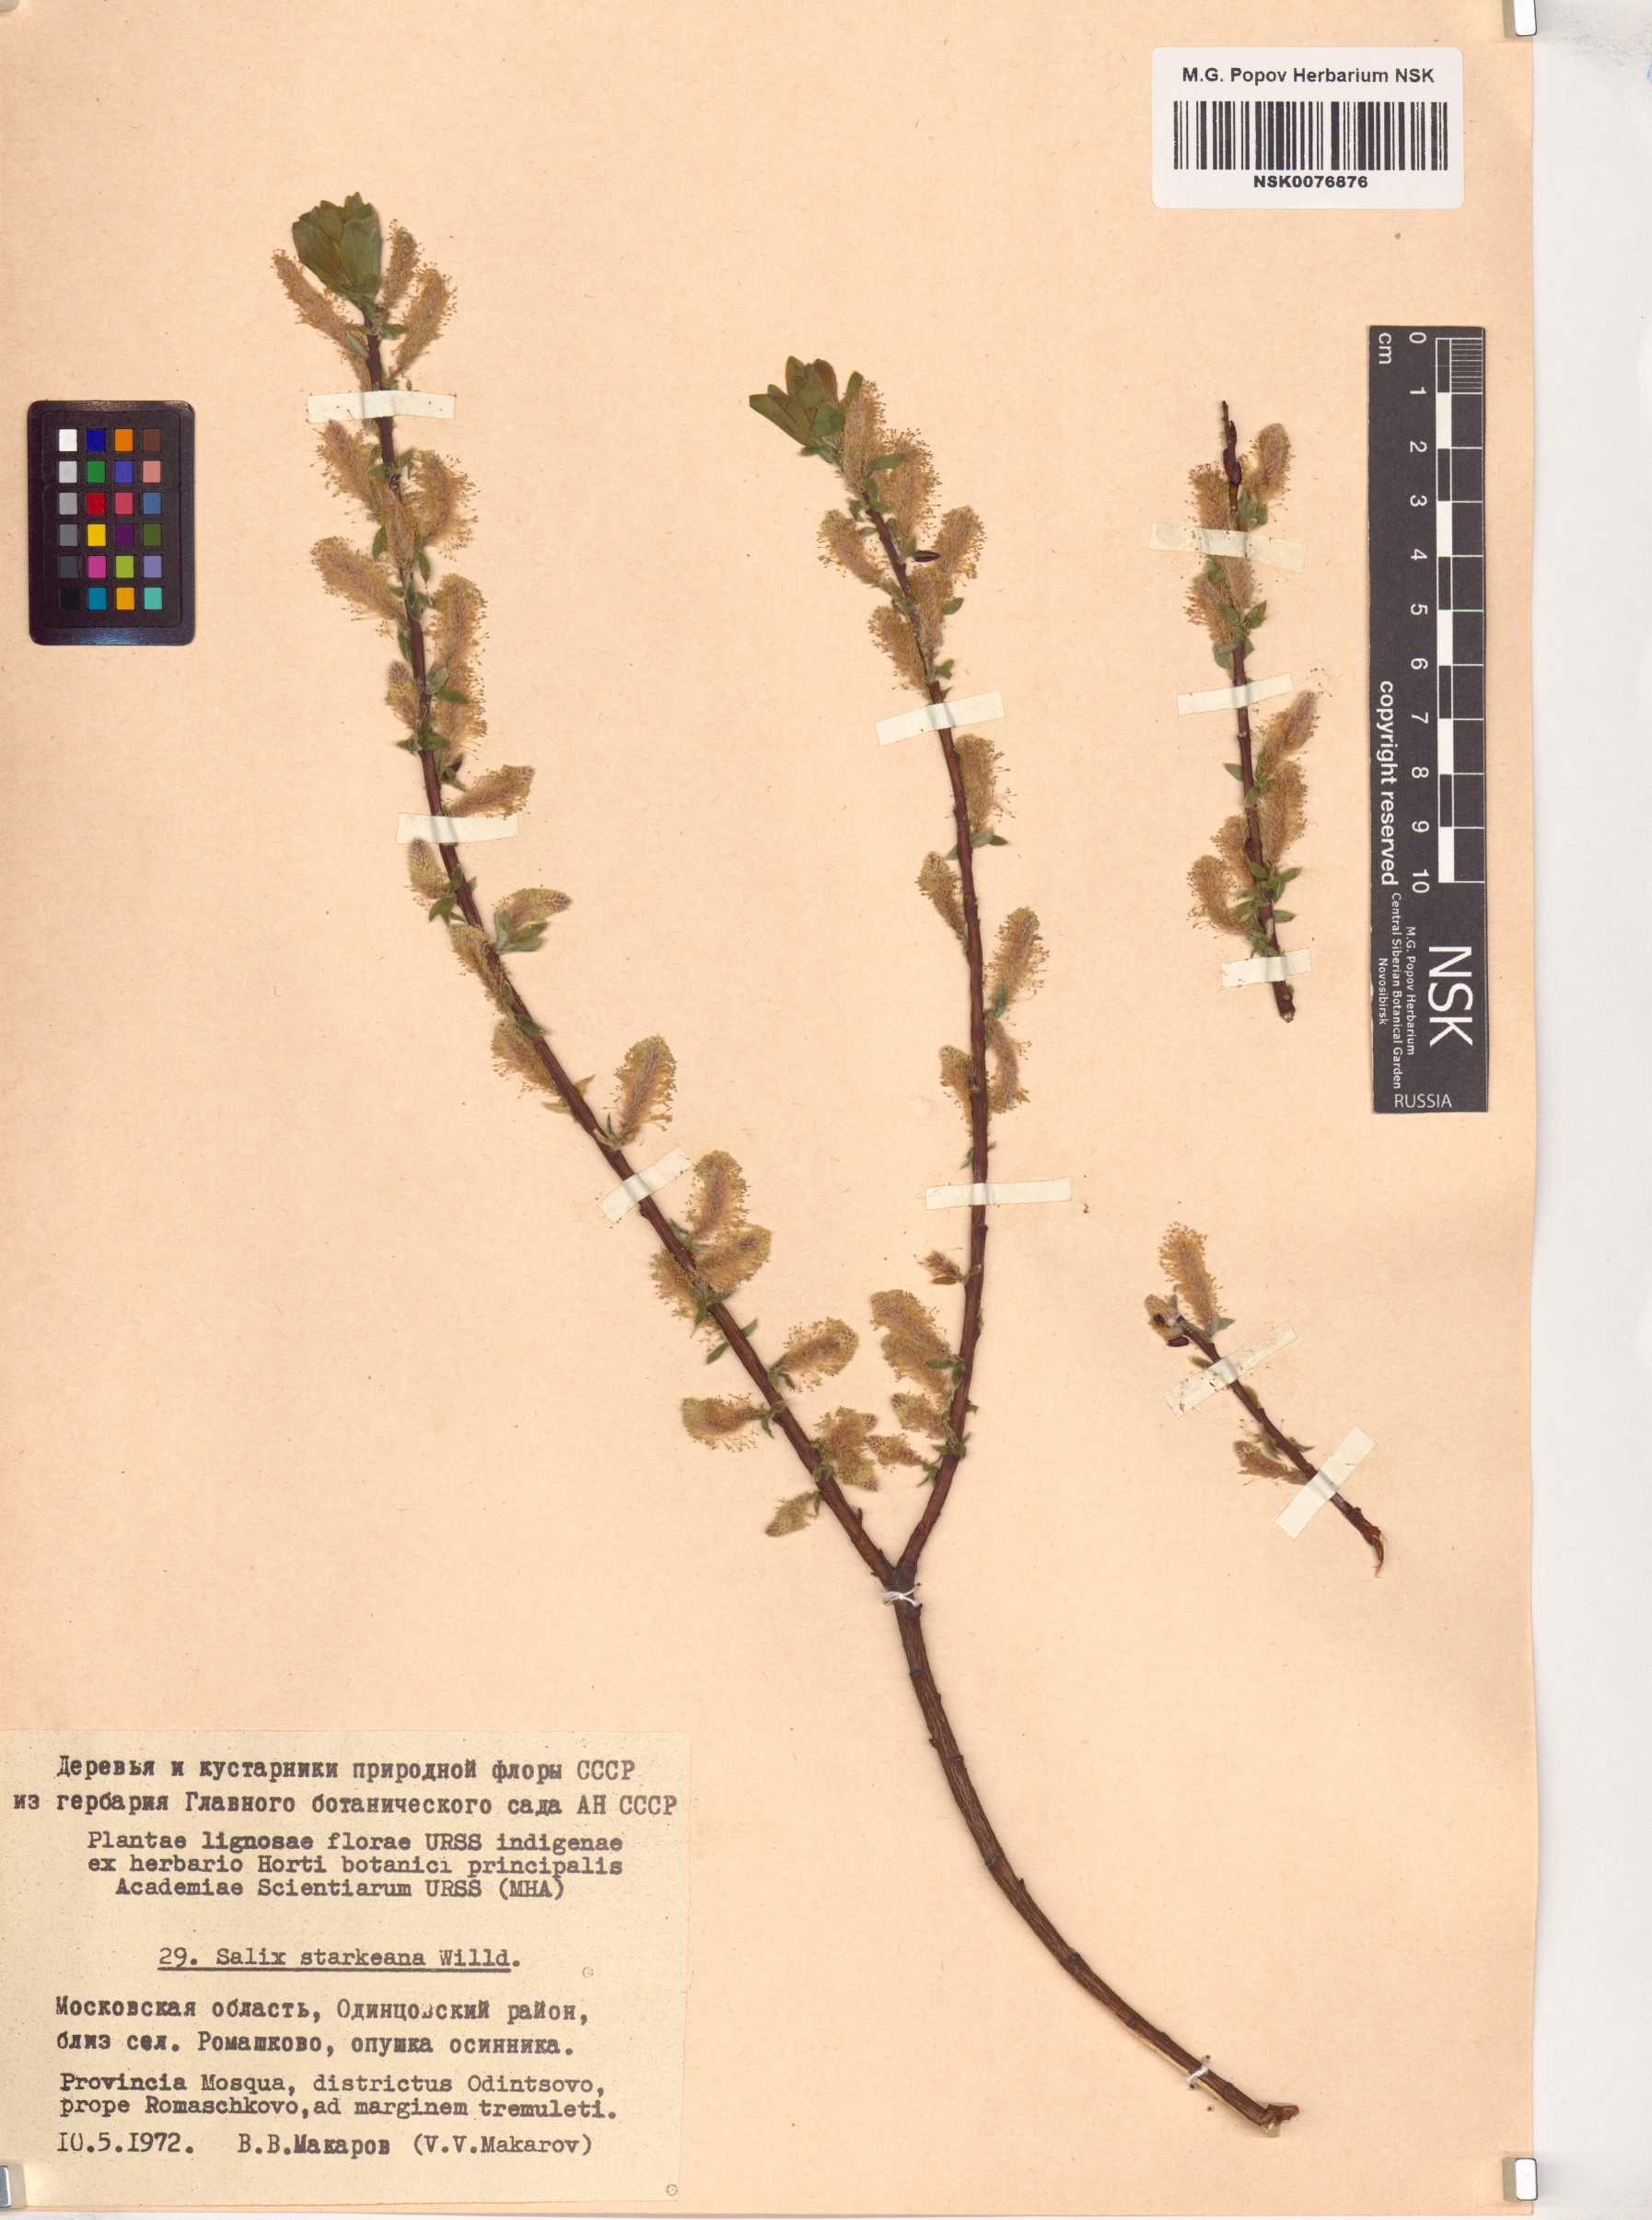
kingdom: Plantae
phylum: Tracheophyta
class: Magnoliopsida
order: Malpighiales
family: Salicaceae
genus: Salix
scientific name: Salix starkeana
